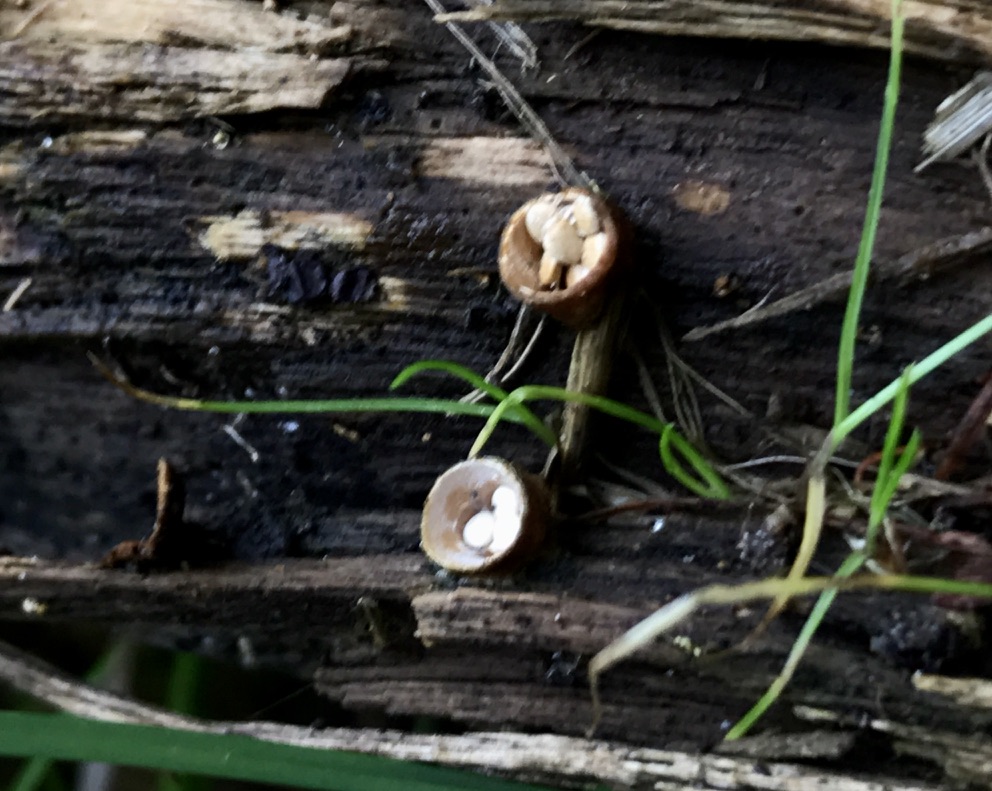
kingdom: Fungi
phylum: Basidiomycota
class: Agaricomycetes
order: Agaricales
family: Nidulariaceae
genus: Crucibulum
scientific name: Crucibulum crucibuliforme
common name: krukkesvamp
